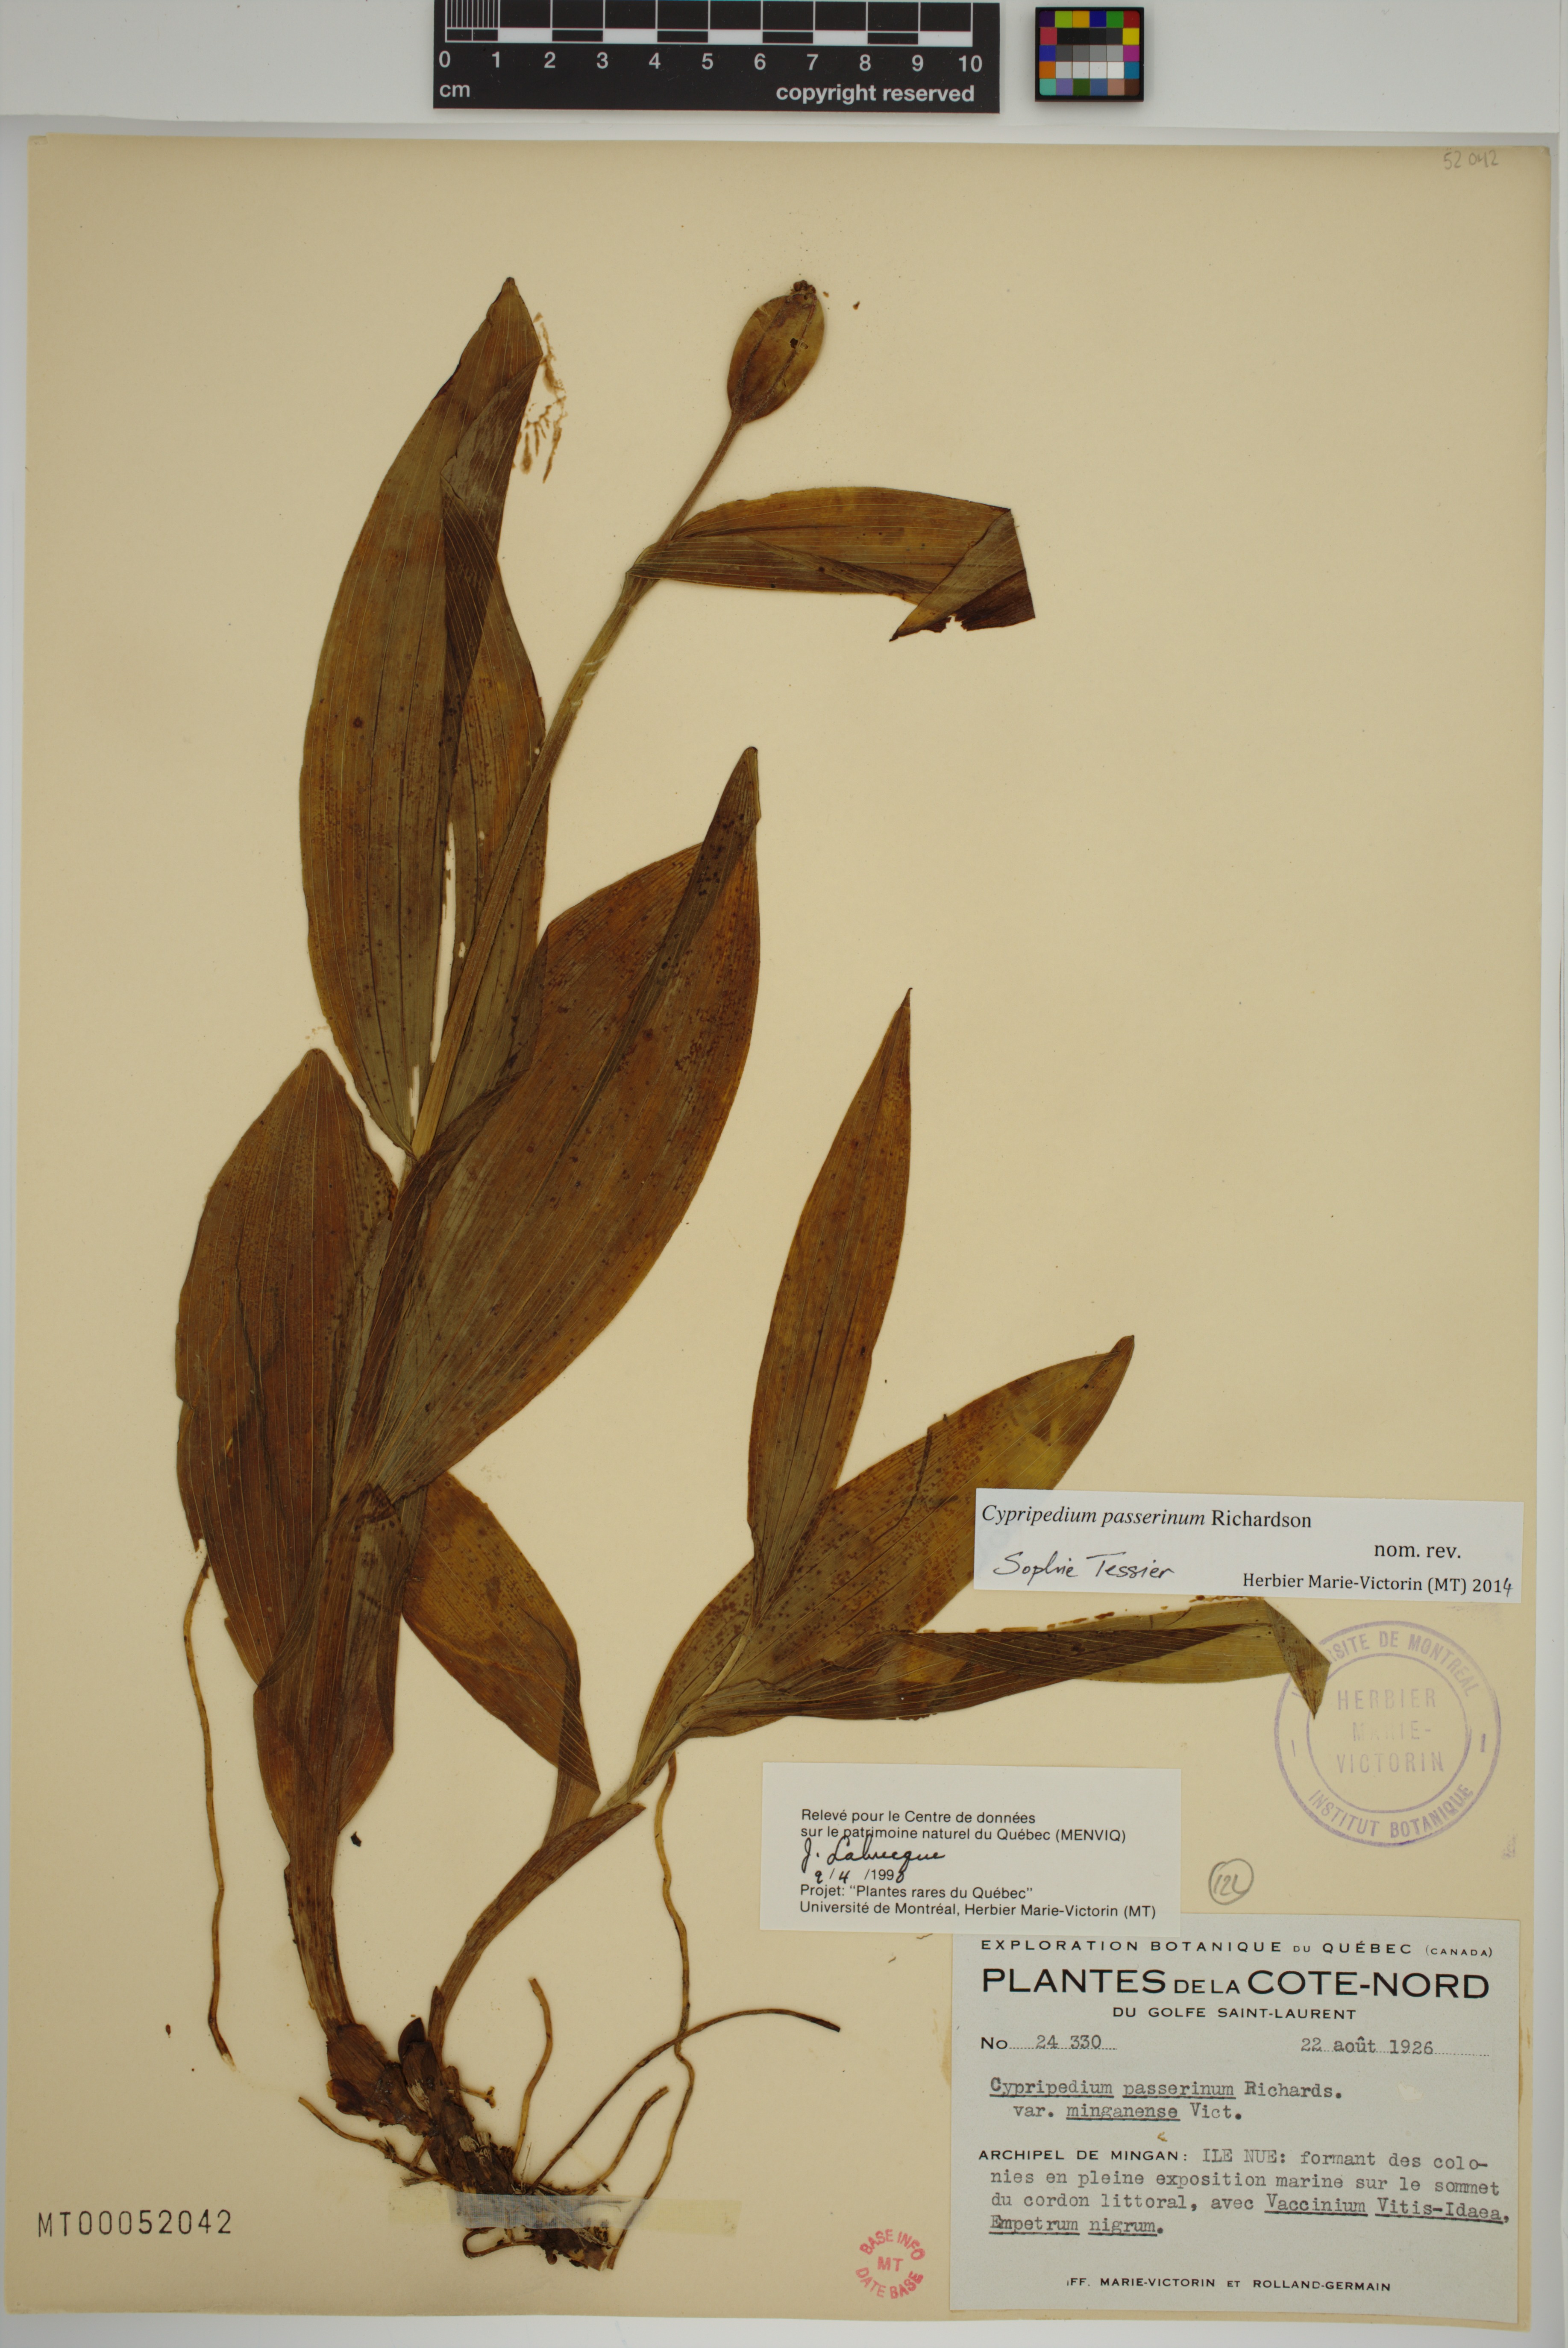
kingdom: Plantae
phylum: Tracheophyta
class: Liliopsida
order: Asparagales
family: Orchidaceae
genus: Cypripedium
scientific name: Cypripedium passerinum
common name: Sparrow's-egg lady's-slipper
